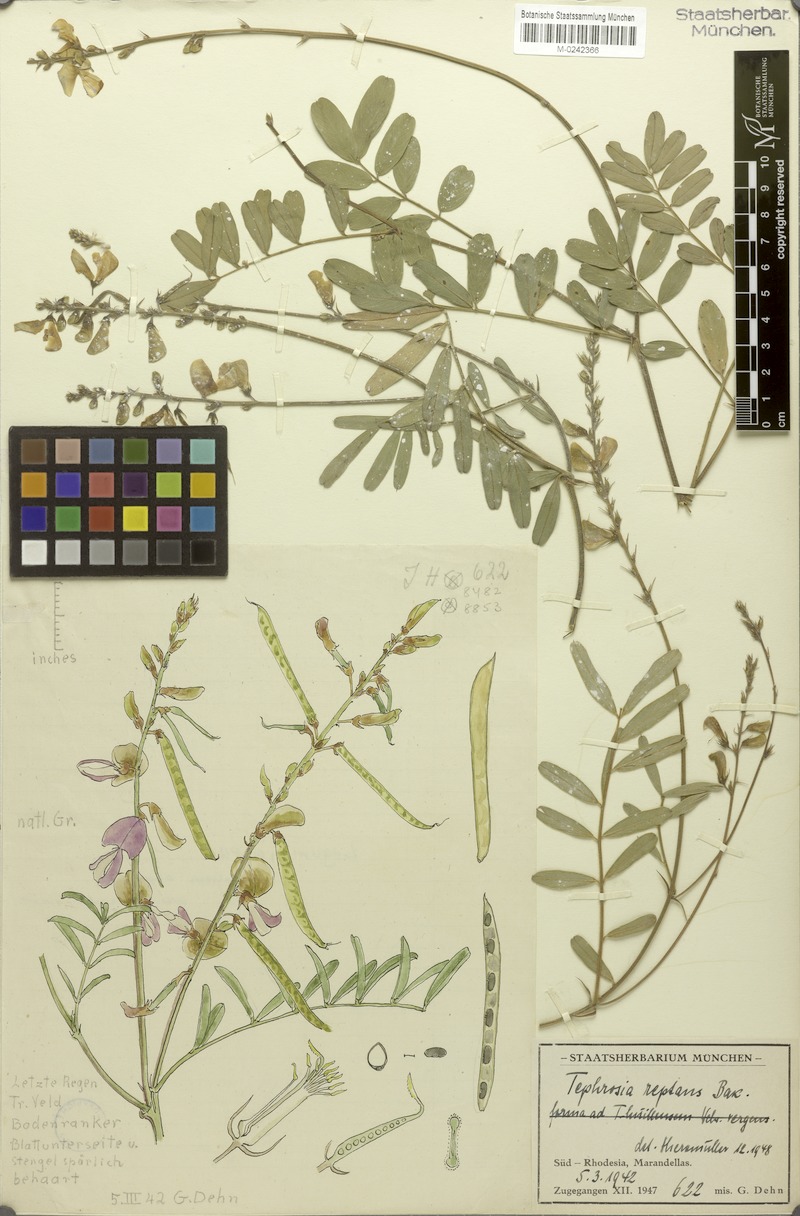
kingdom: Plantae
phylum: Tracheophyta
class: Magnoliopsida
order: Fabales
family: Fabaceae
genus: Tephrosia
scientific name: Tephrosia reptans
